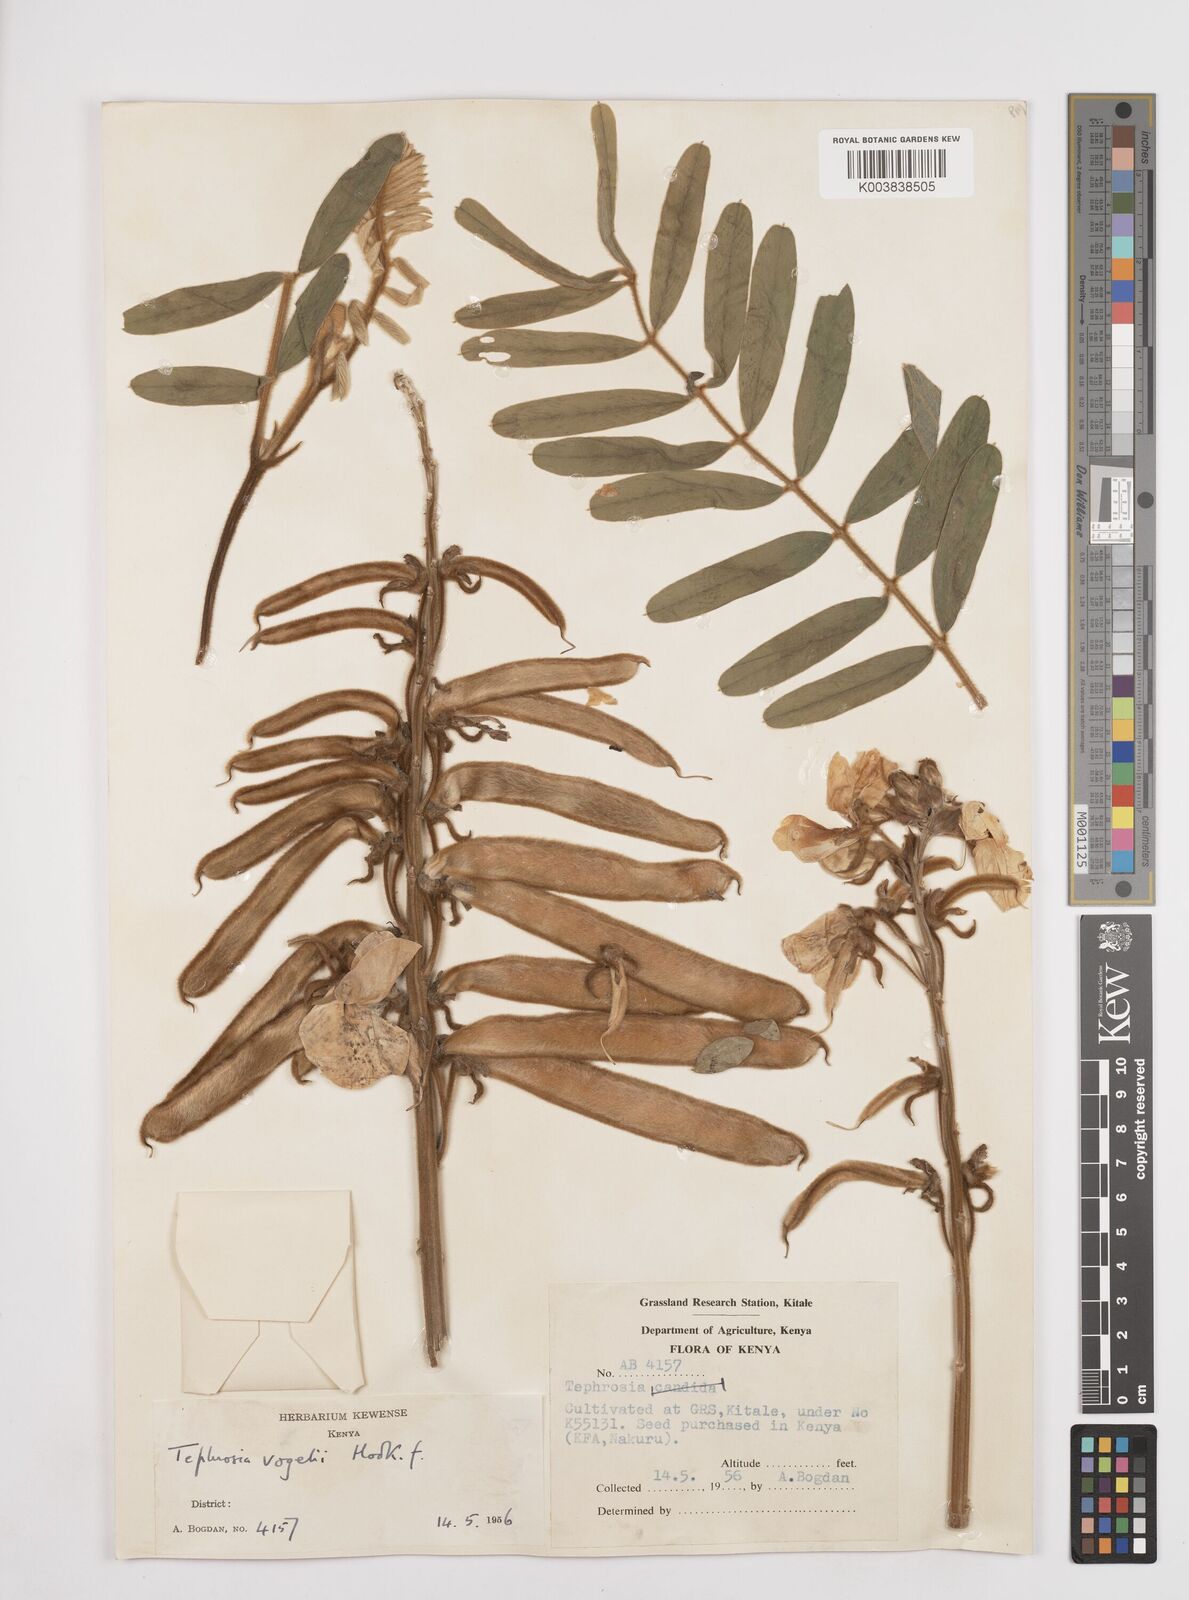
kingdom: Plantae
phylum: Tracheophyta
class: Magnoliopsida
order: Fabales
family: Fabaceae
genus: Tephrosia
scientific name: Tephrosia vogelii
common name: Vogel tephrosia
